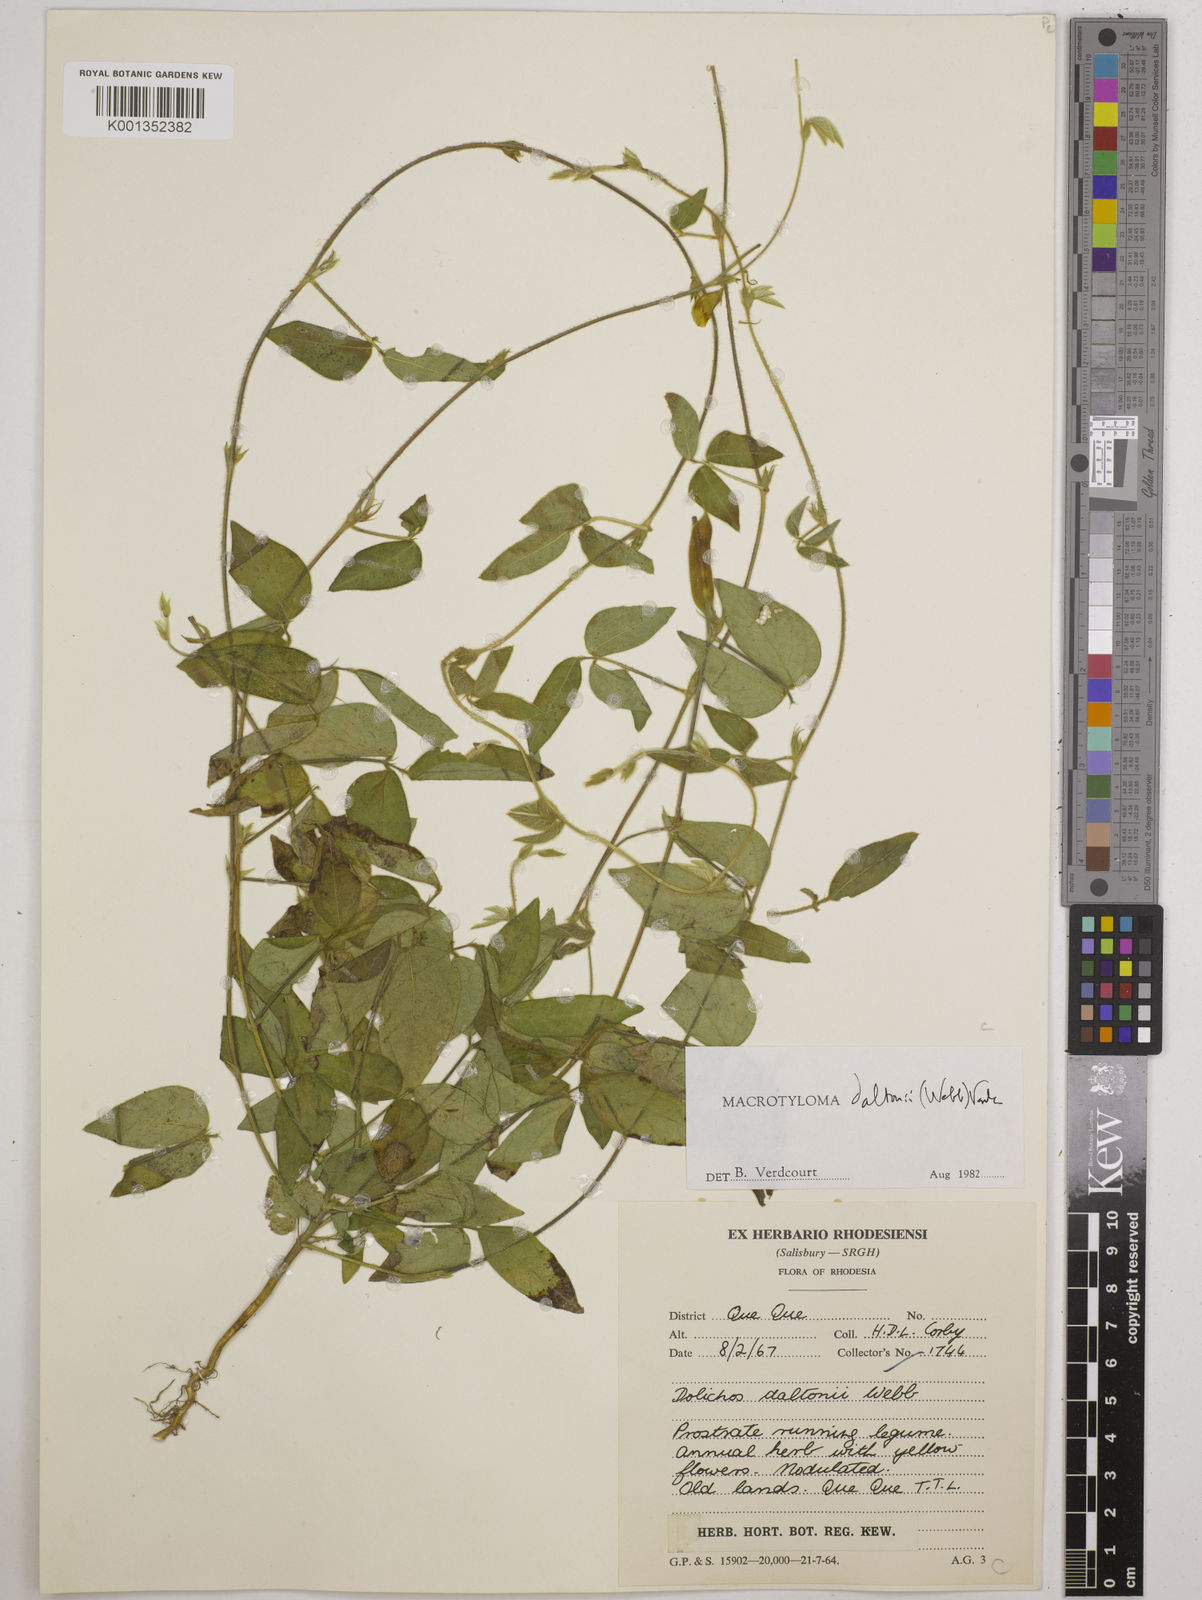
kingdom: Plantae
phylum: Tracheophyta
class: Magnoliopsida
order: Fabales
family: Fabaceae
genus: Macrotyloma
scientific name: Macrotyloma daltonii
